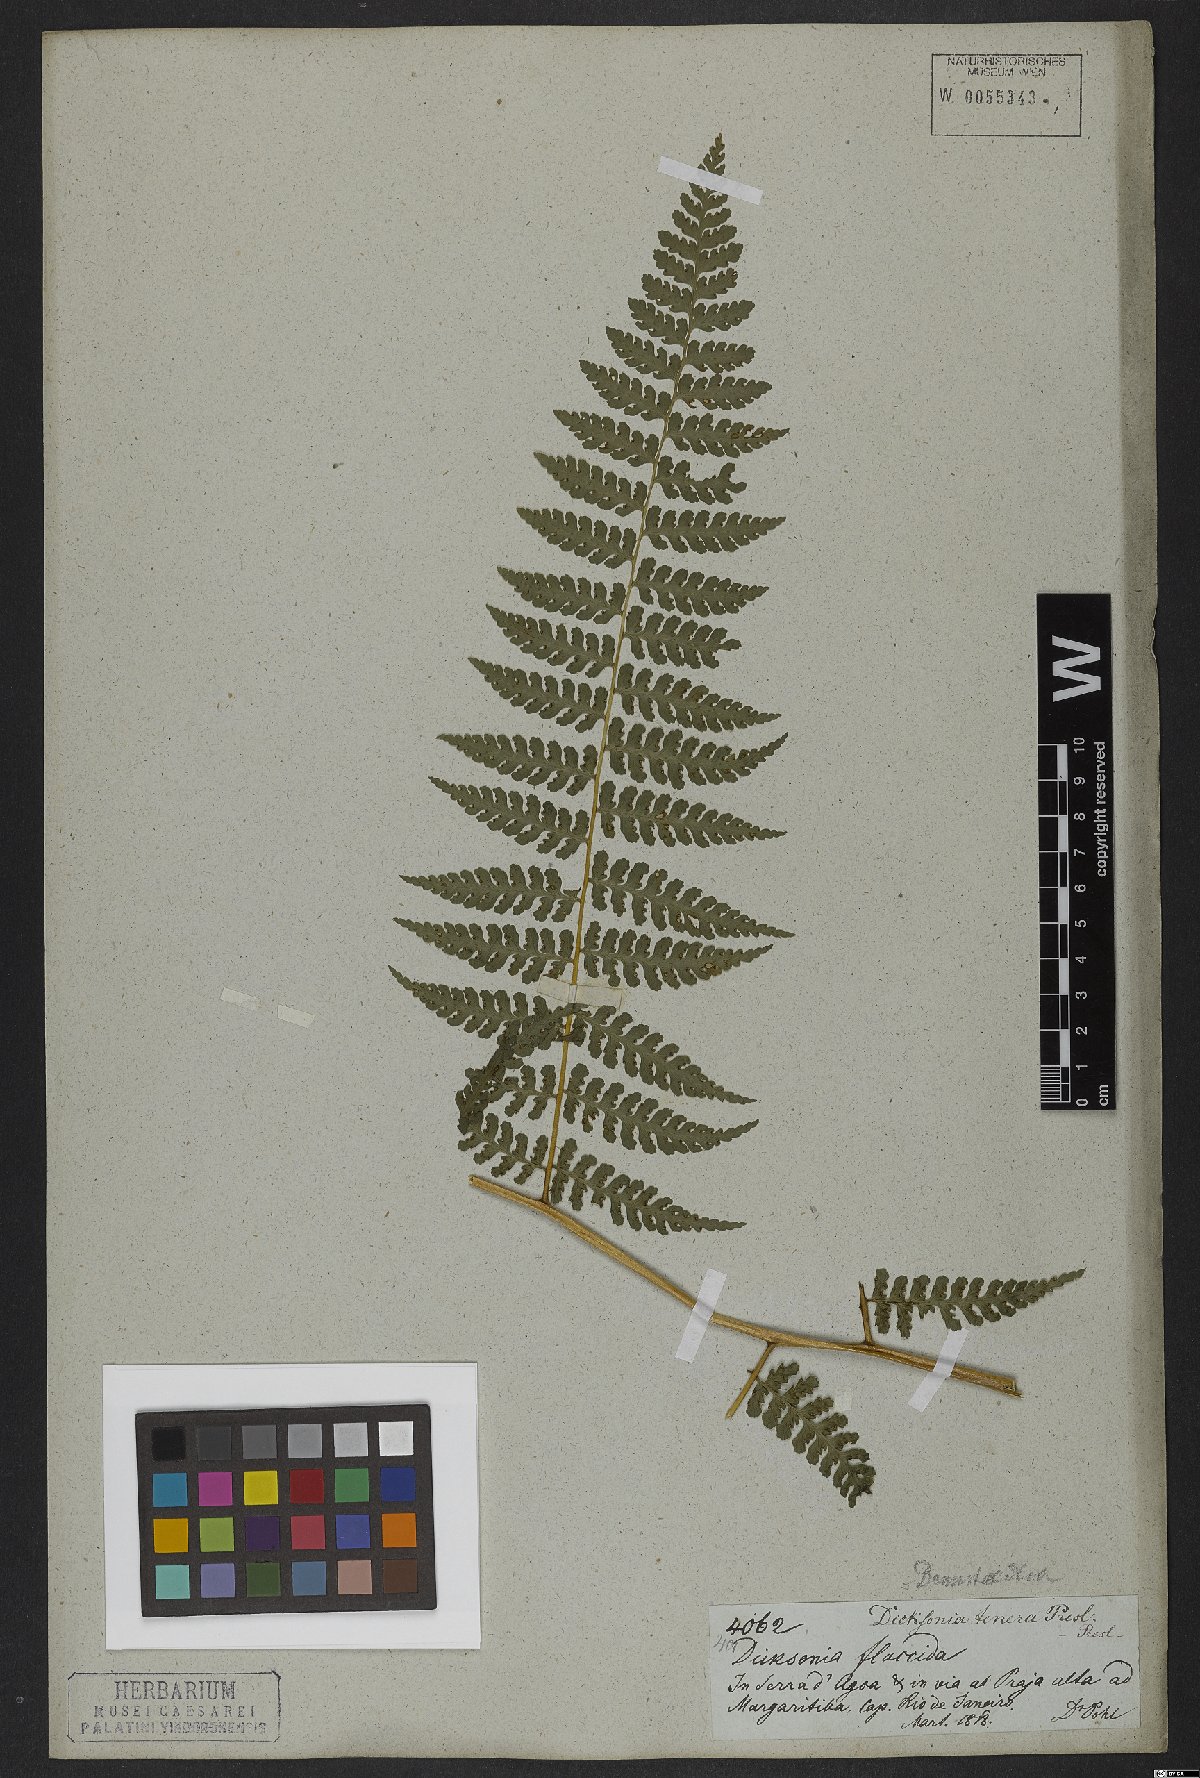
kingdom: Plantae
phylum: Tracheophyta
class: Polypodiopsida
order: Polypodiales
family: Dennstaedtiaceae
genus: Mucura
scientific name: Mucura globulifera
